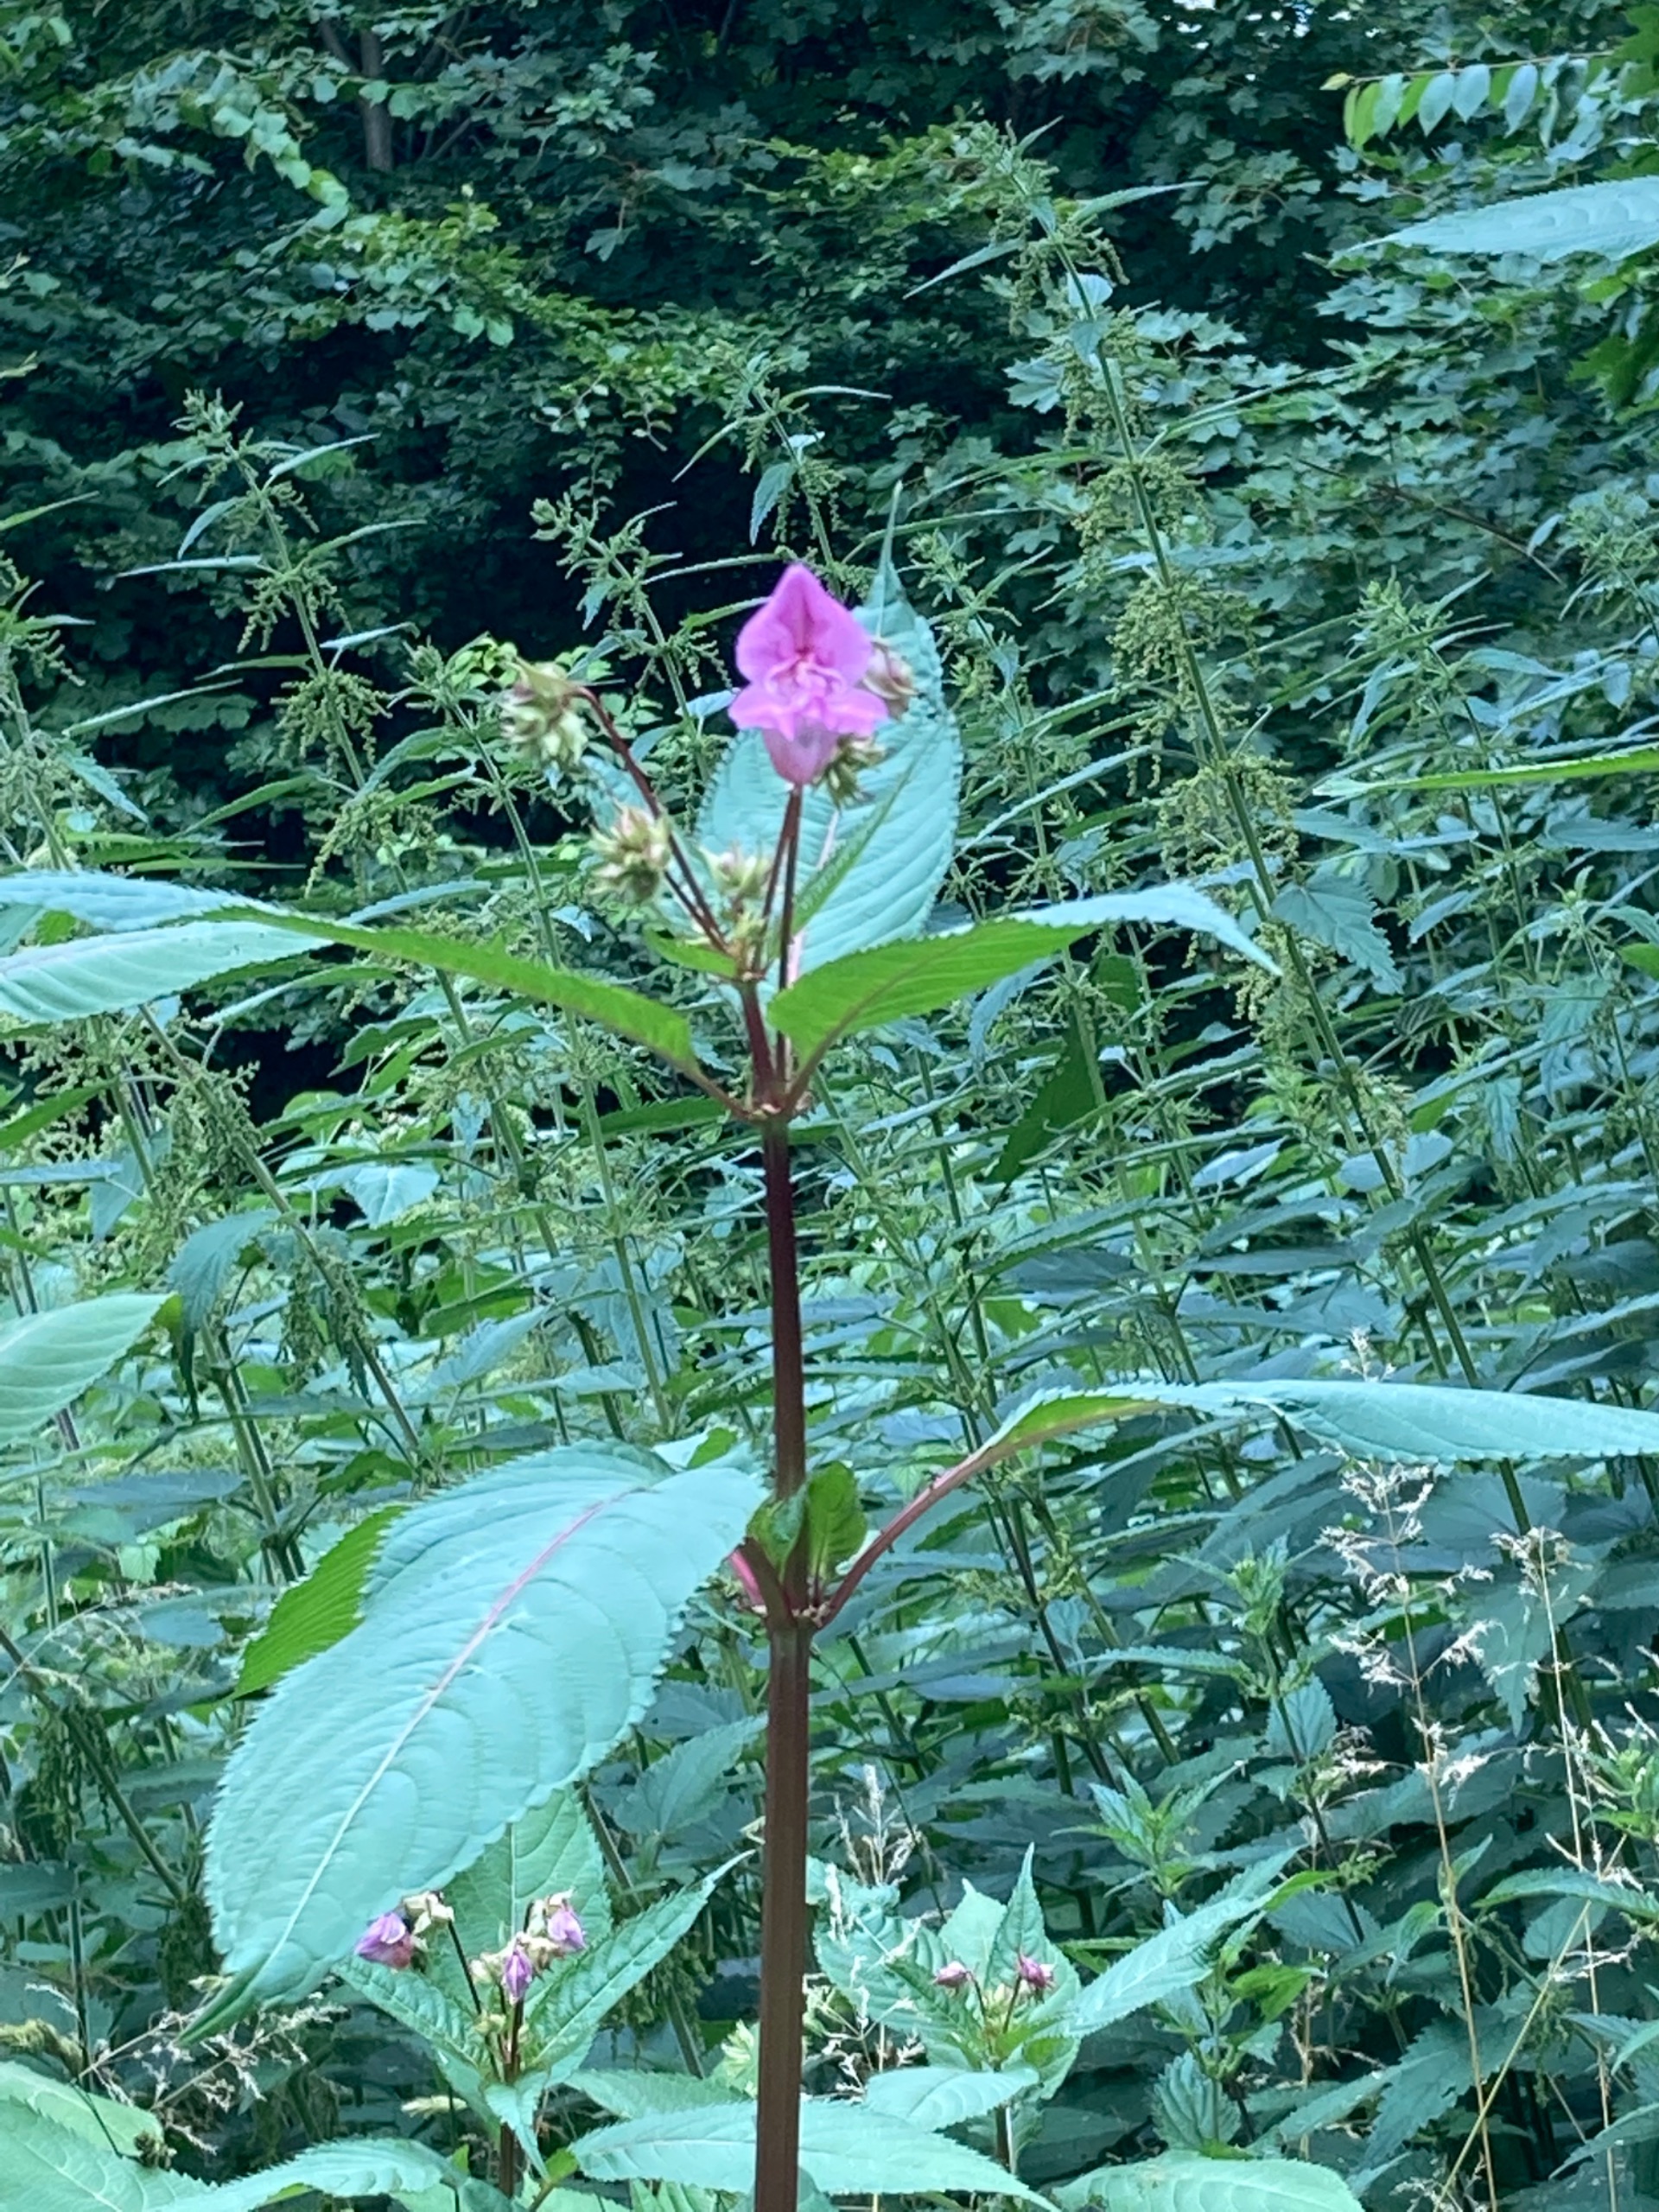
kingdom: Plantae
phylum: Tracheophyta
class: Magnoliopsida
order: Ericales
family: Balsaminaceae
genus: Impatiens
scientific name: Impatiens glandulifera
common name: Kæmpe-balsamin
